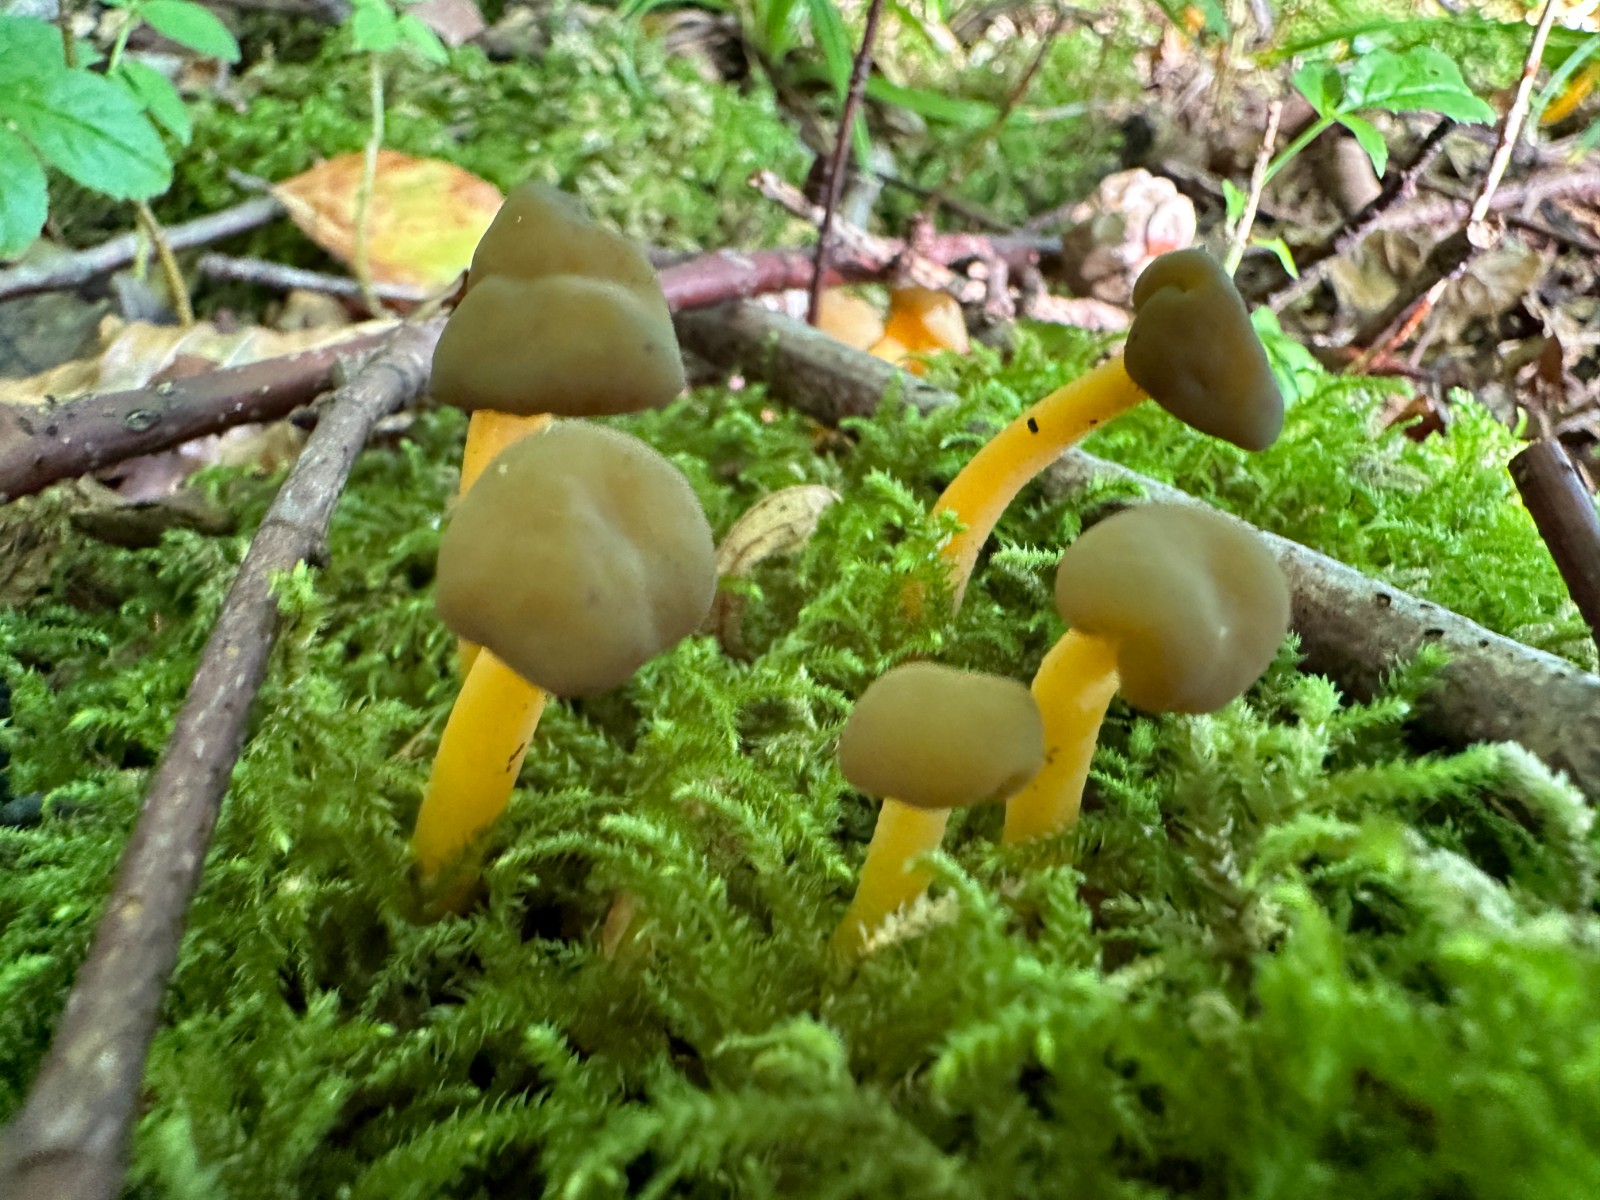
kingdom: Fungi
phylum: Ascomycota
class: Leotiomycetes
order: Leotiales
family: Leotiaceae
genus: Leotia
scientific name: Leotia lubrica
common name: ravsvamp
